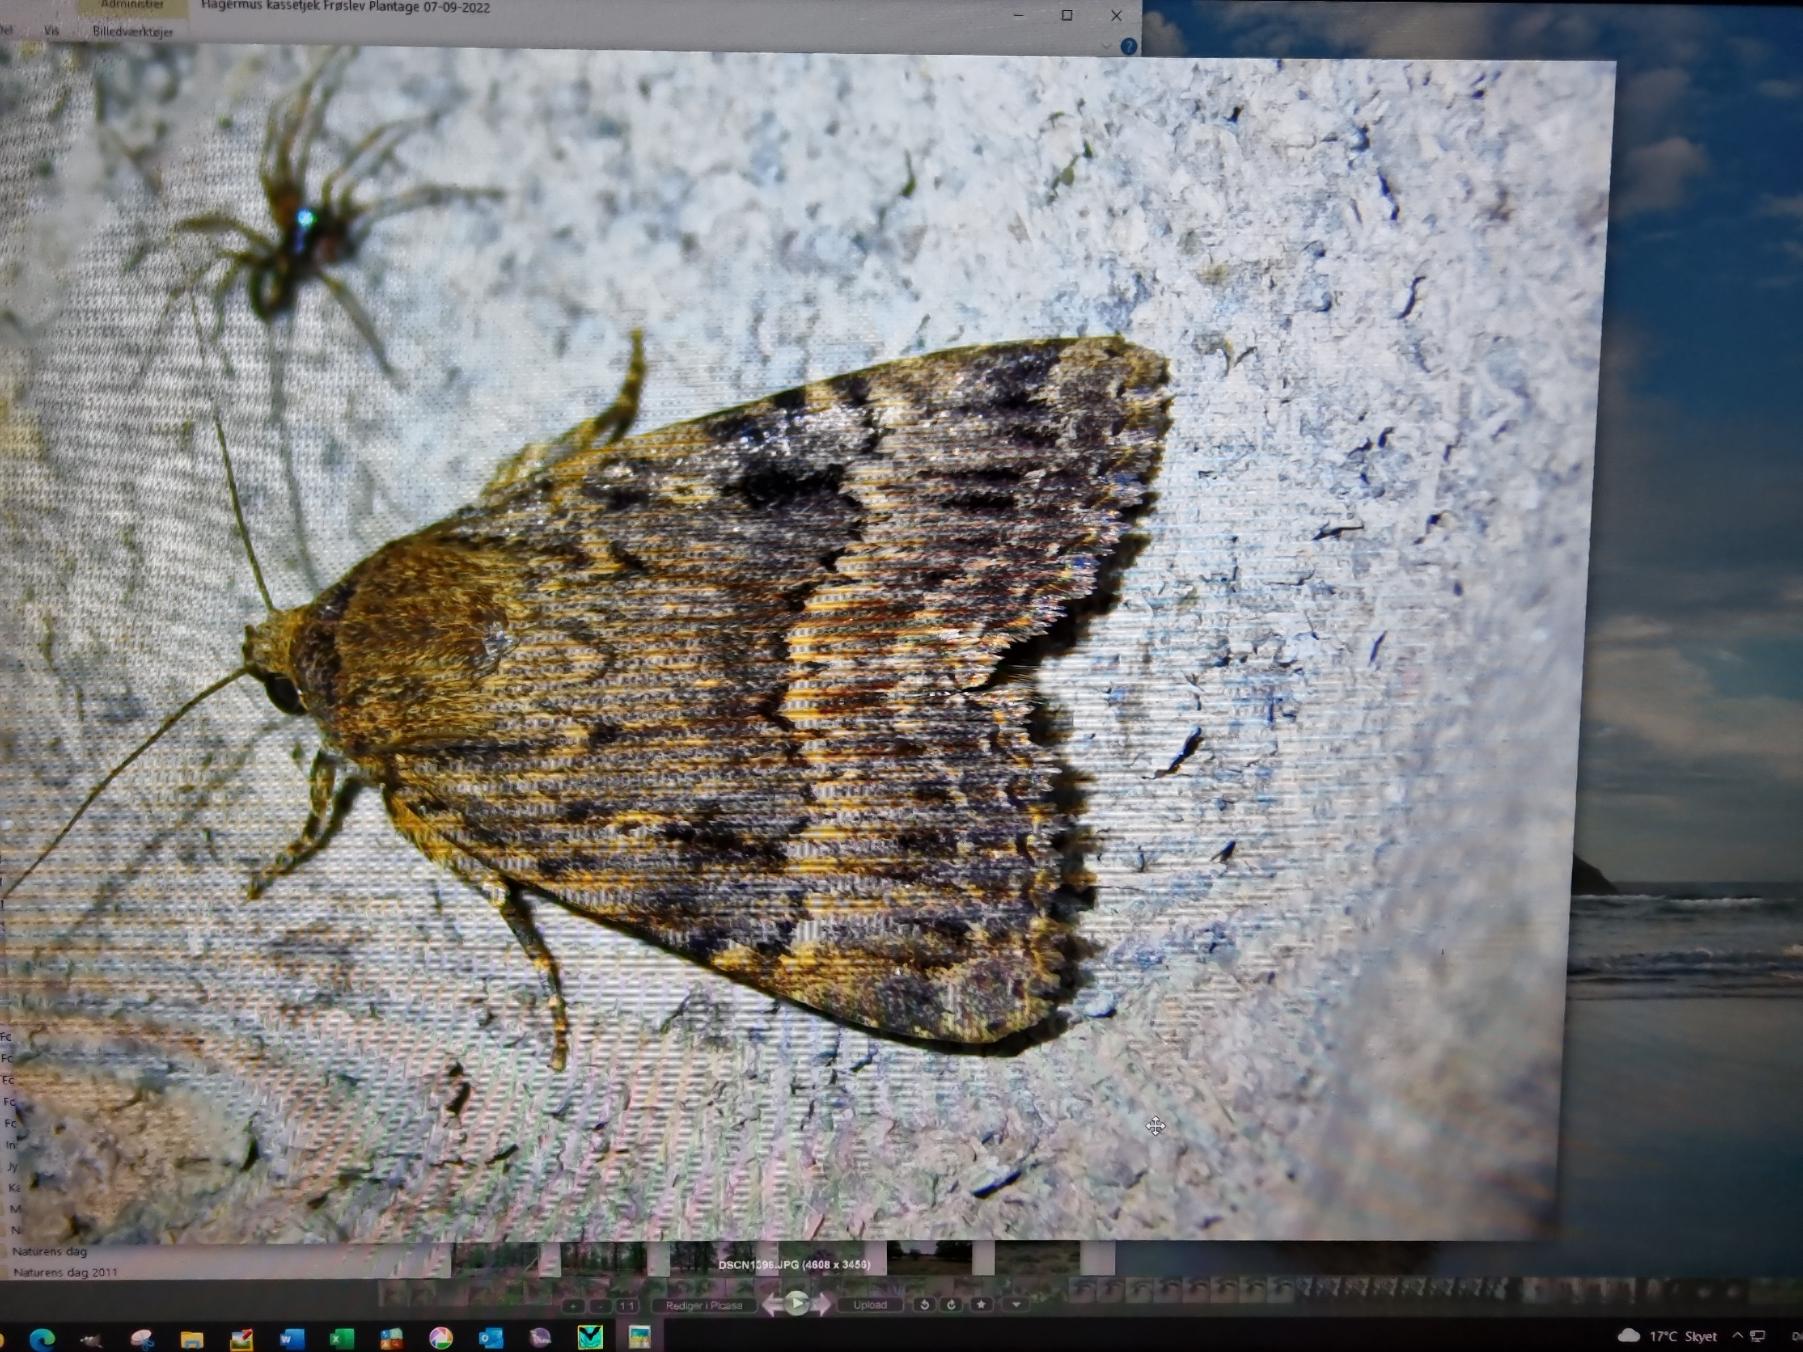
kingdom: Animalia
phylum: Arthropoda
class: Insecta
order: Lepidoptera
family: Noctuidae
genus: Amphipyra
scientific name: Amphipyra pyramidea
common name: Pyramideugle
